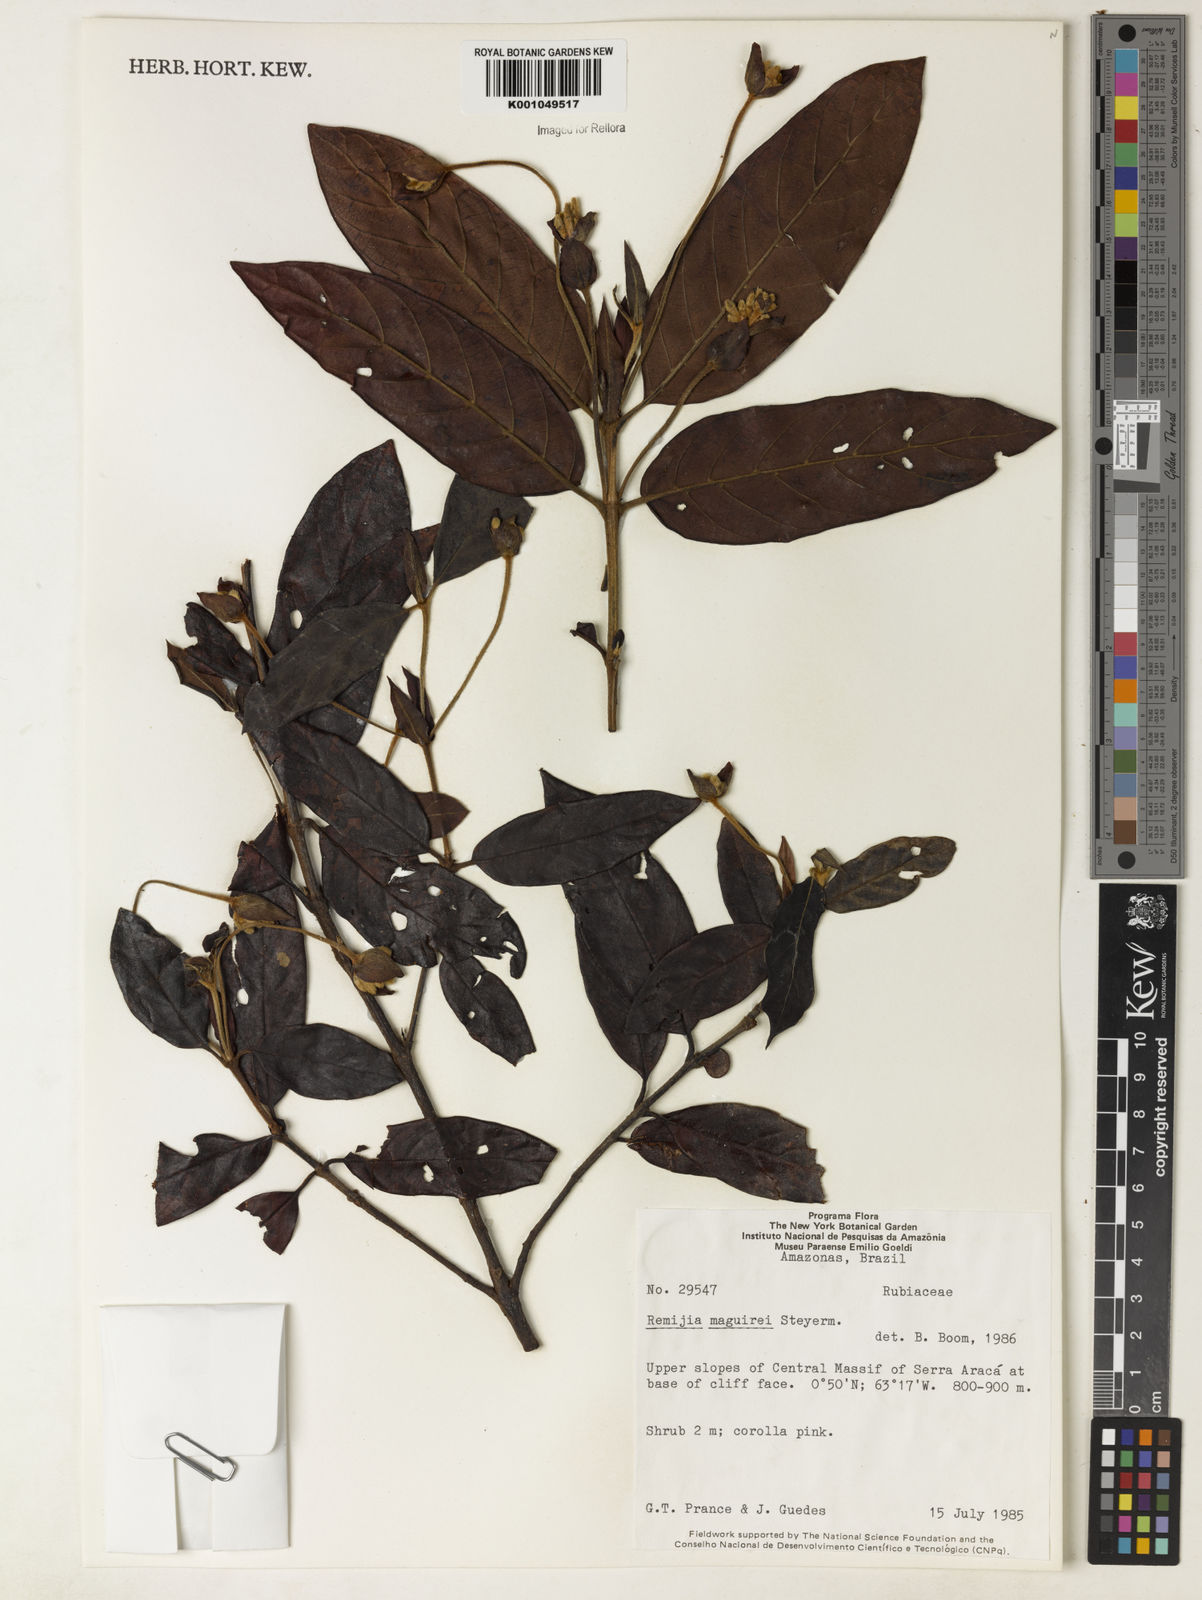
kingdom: Plantae
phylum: Tracheophyta
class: Magnoliopsida
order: Gentianales
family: Rubiaceae
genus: Remijia
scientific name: Remijia maguirei
